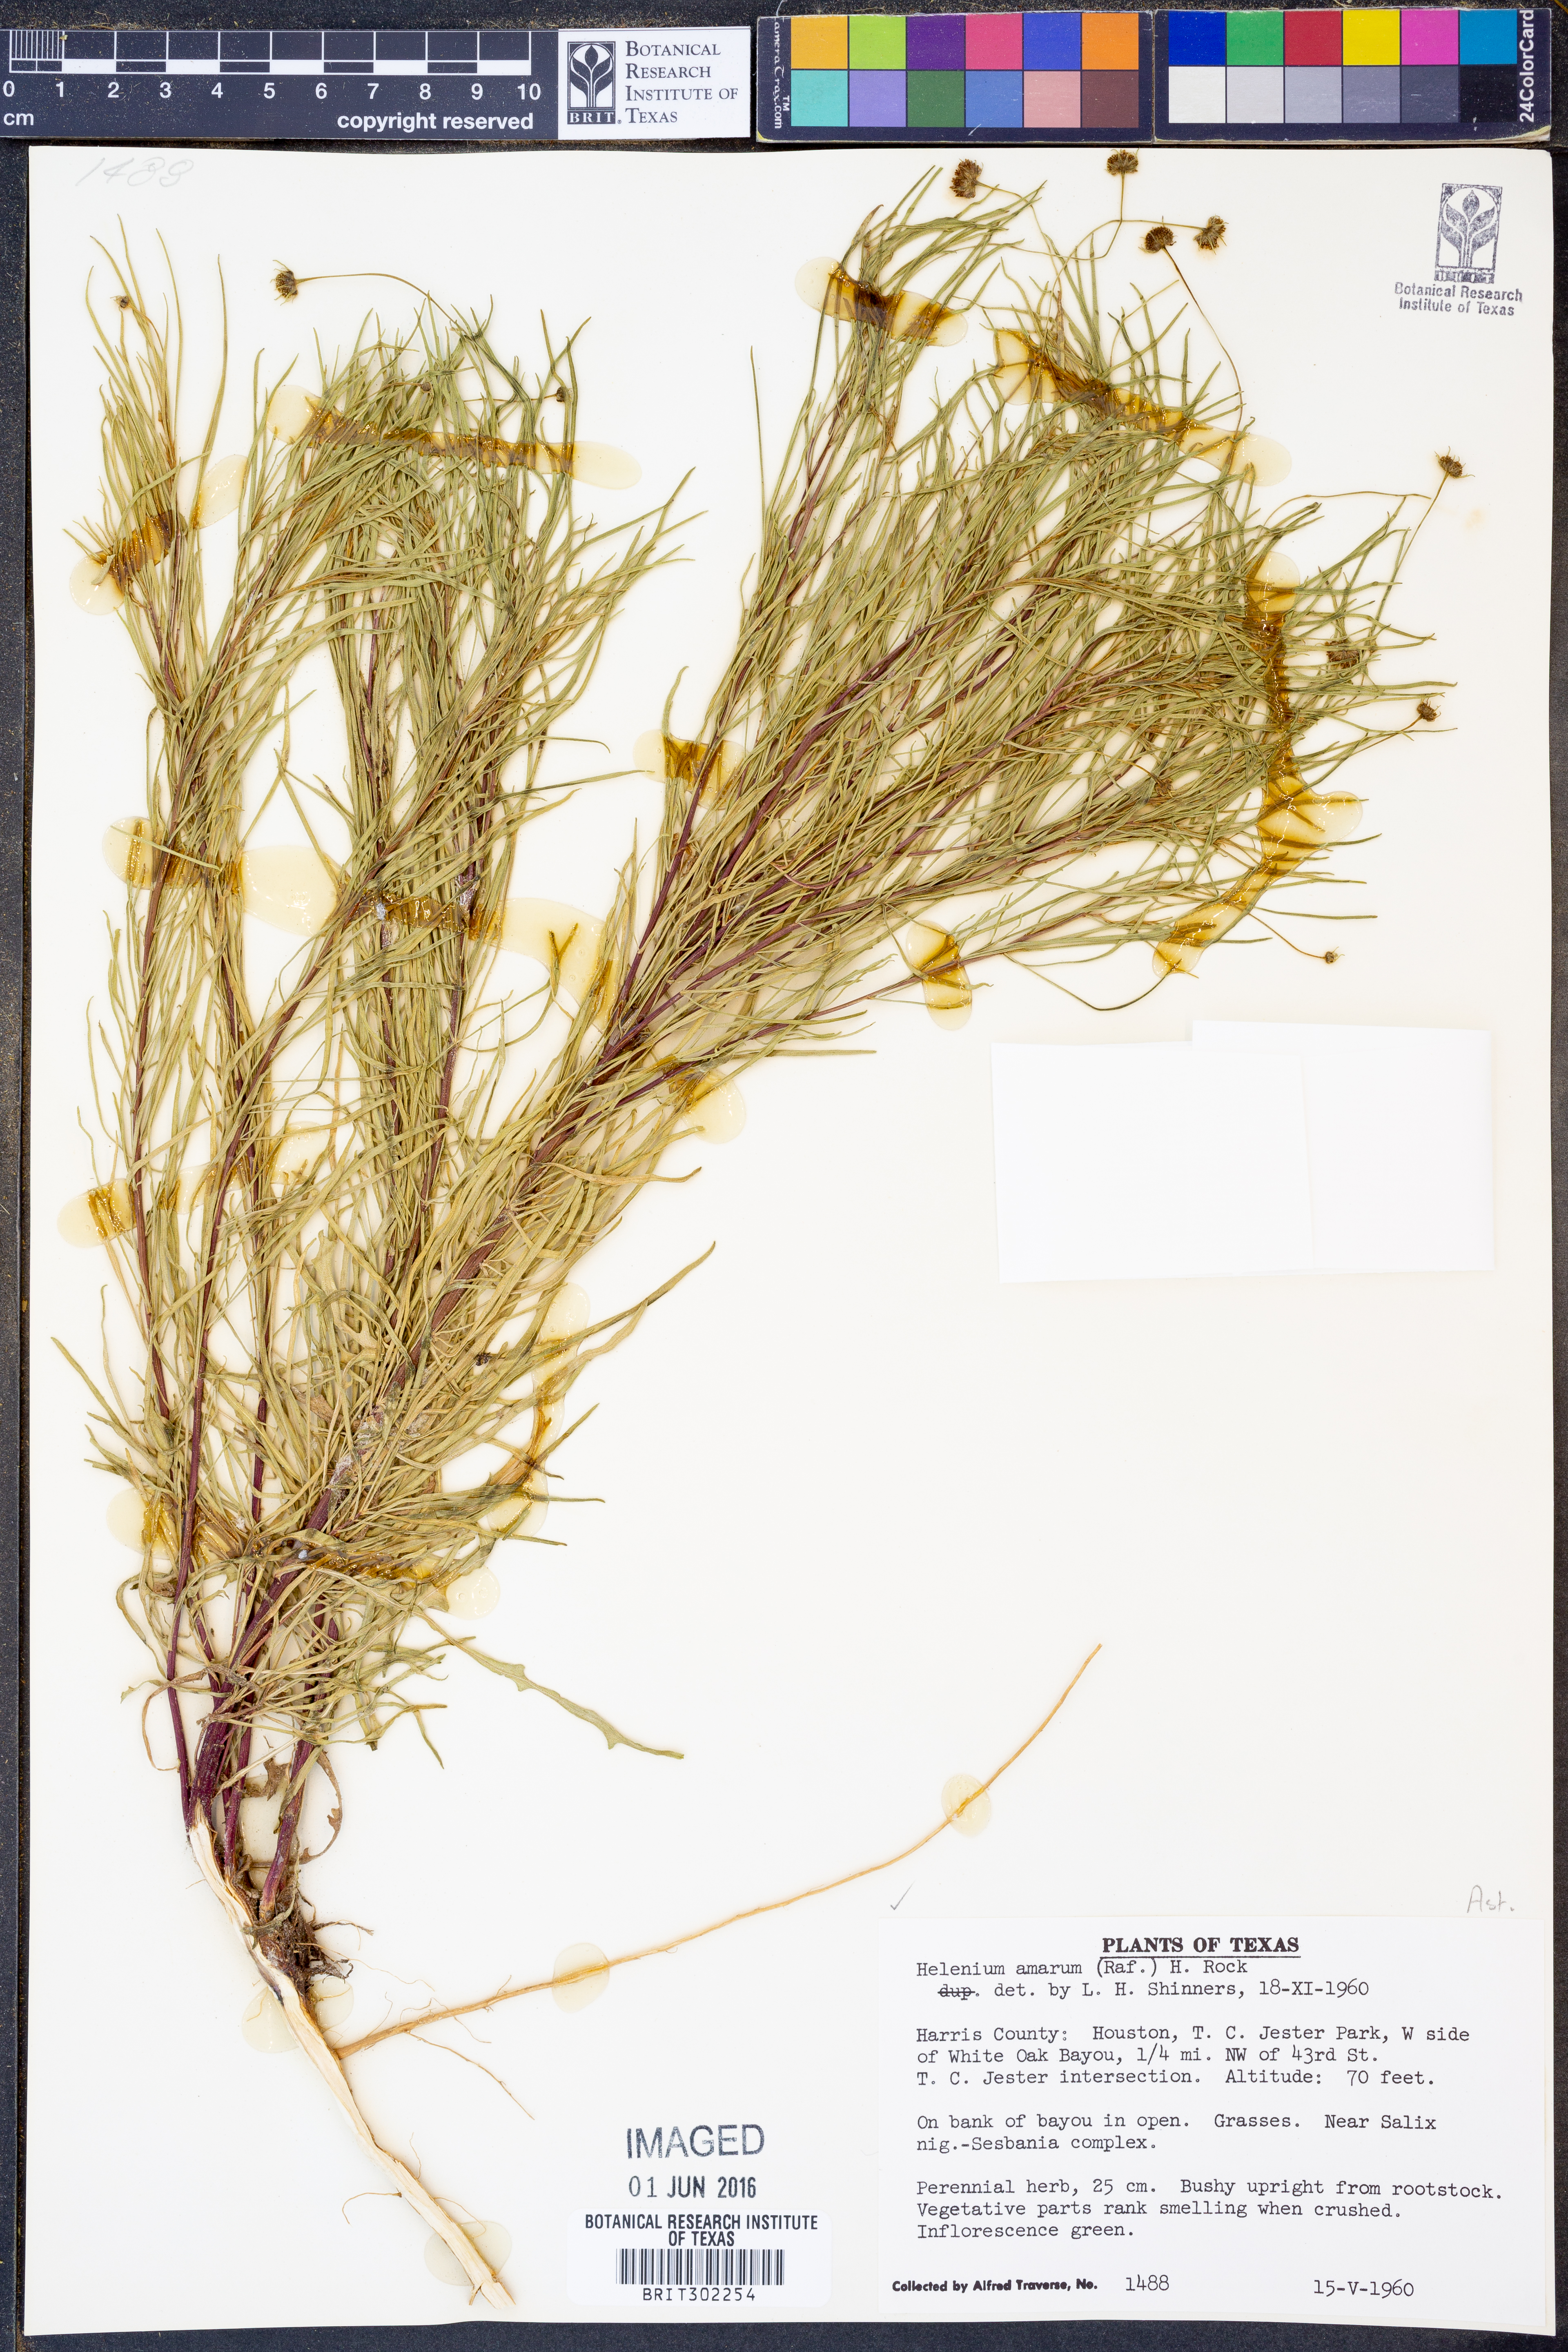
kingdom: Plantae
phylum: Tracheophyta
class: Magnoliopsida
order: Asterales
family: Asteraceae
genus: Helenium
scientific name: Helenium amarum
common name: Bitter sneezeweed
